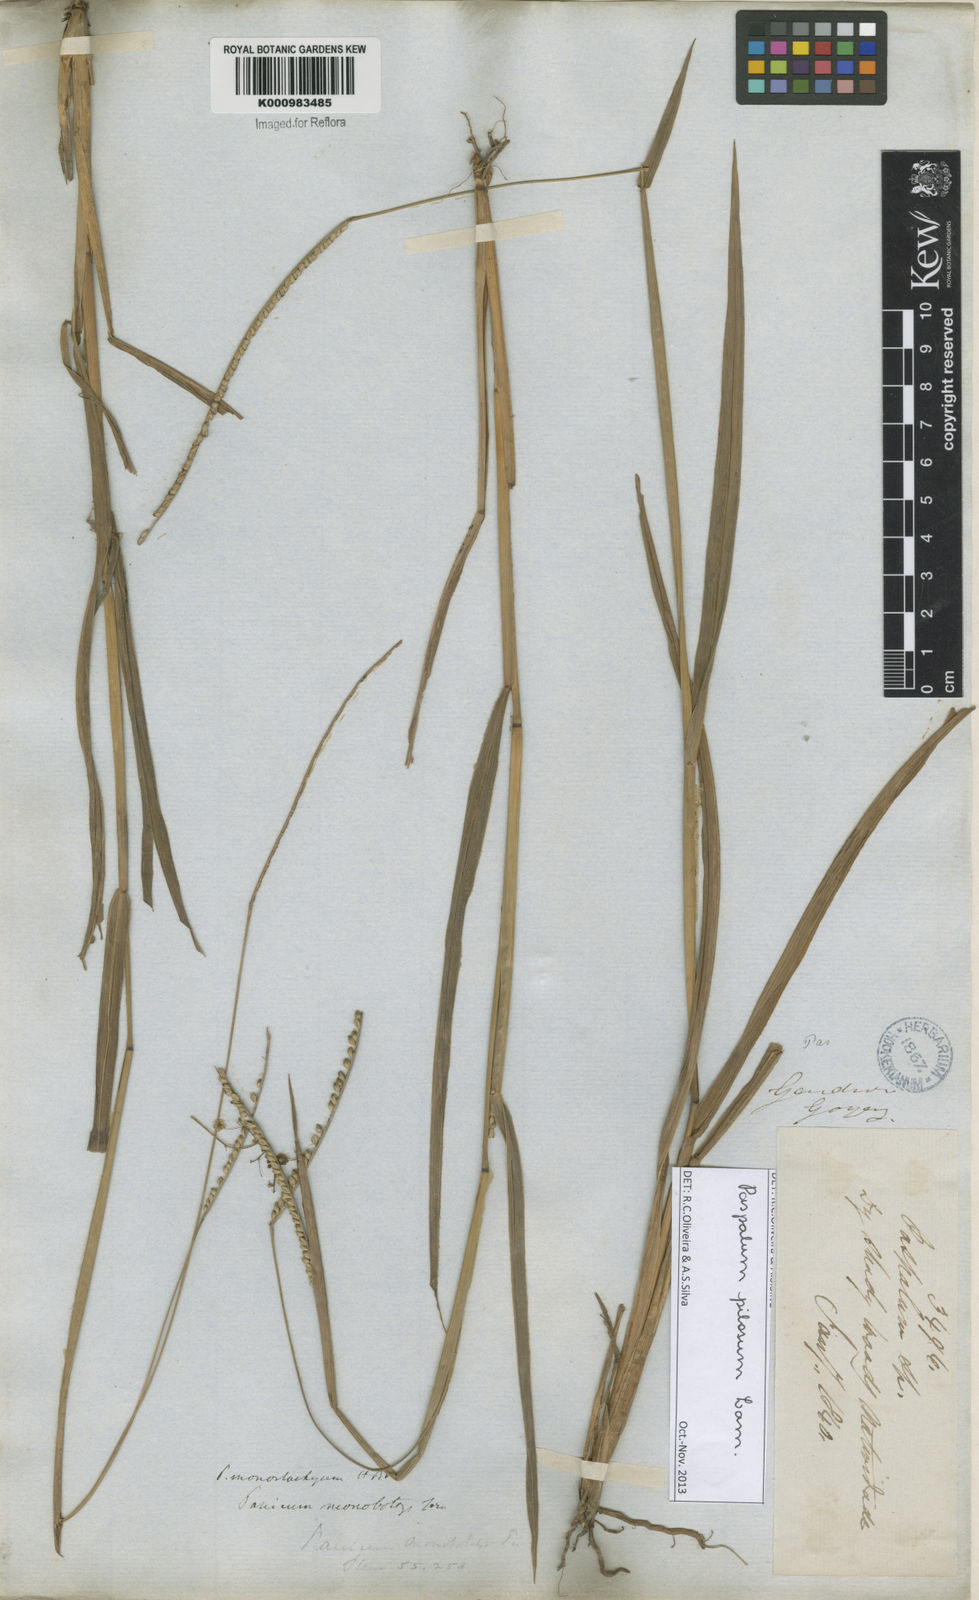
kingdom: Plantae
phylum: Tracheophyta
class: Liliopsida
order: Poales
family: Poaceae
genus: Paspalum
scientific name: Paspalum pilosum
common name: Crowngrass
